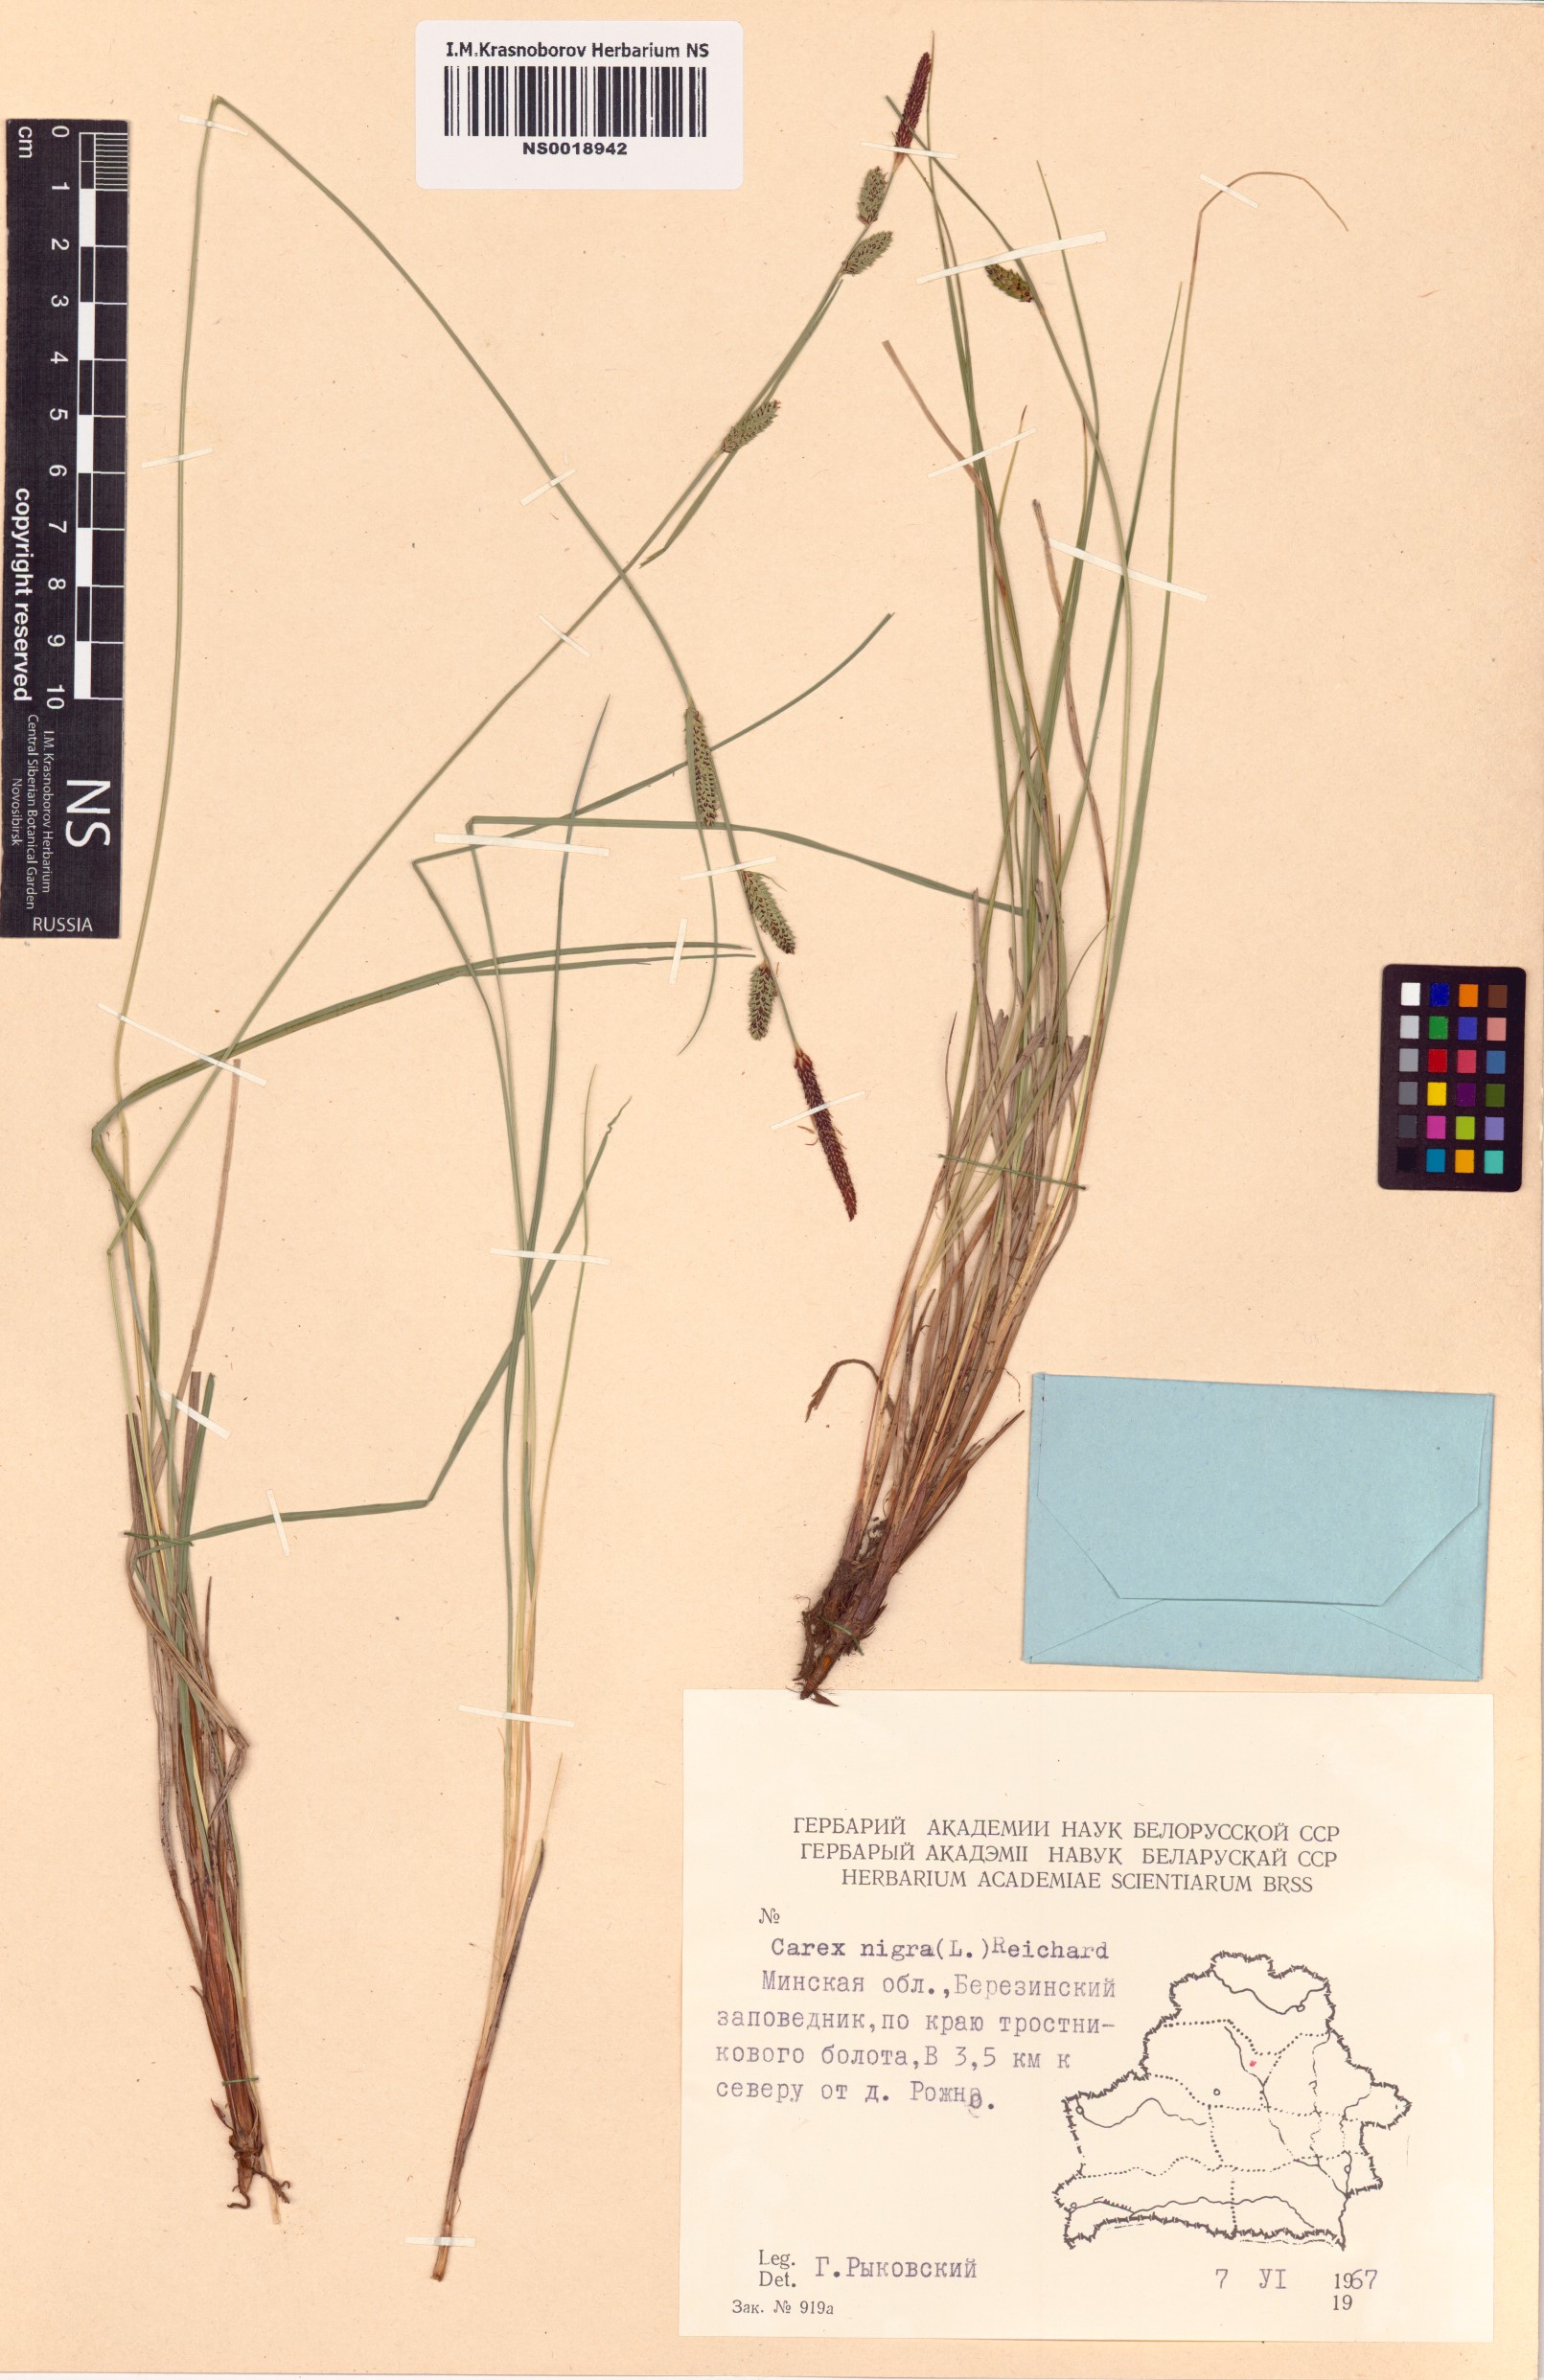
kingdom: Plantae
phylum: Tracheophyta
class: Liliopsida
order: Poales
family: Cyperaceae
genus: Carex
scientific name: Carex nigra
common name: Common sedge
